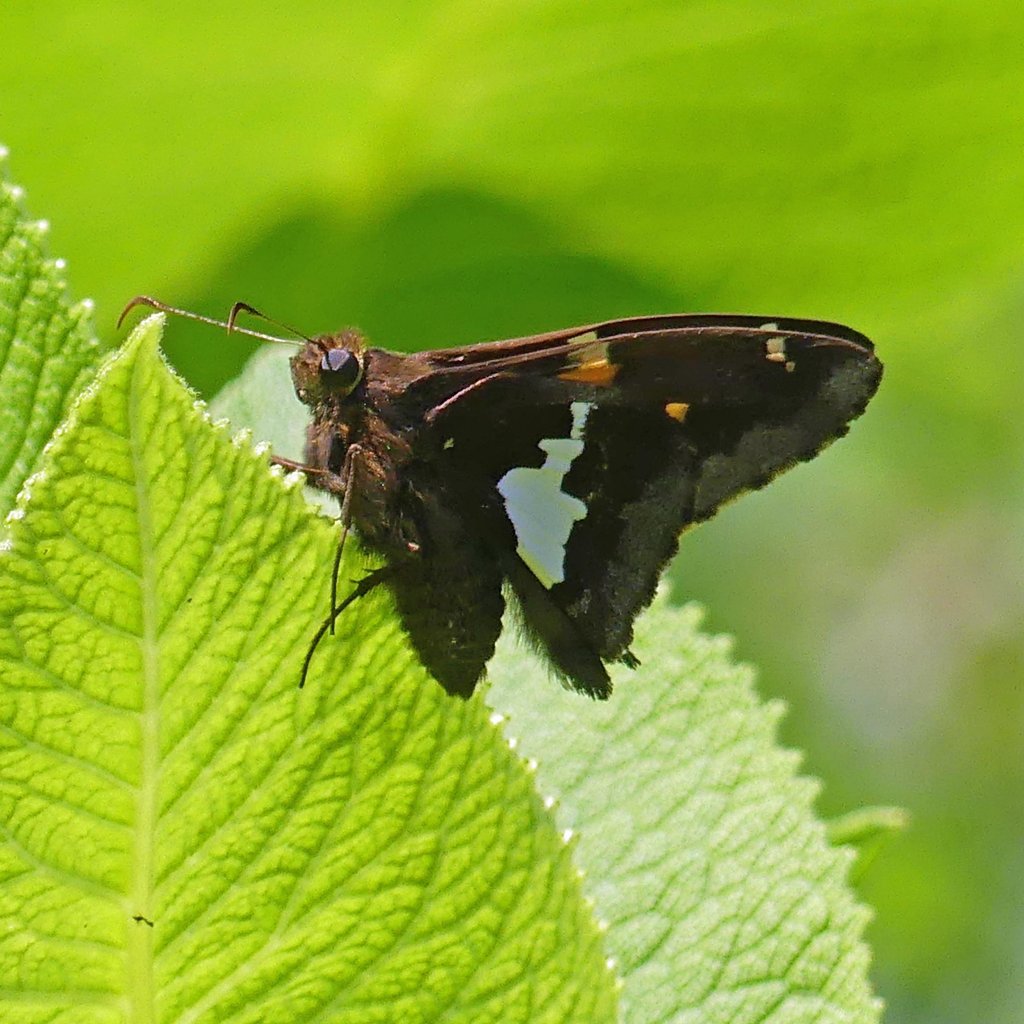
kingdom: Animalia
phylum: Arthropoda
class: Insecta
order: Lepidoptera
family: Hesperiidae
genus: Epargyreus
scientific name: Epargyreus clarus
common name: Silver-spotted Skipper
